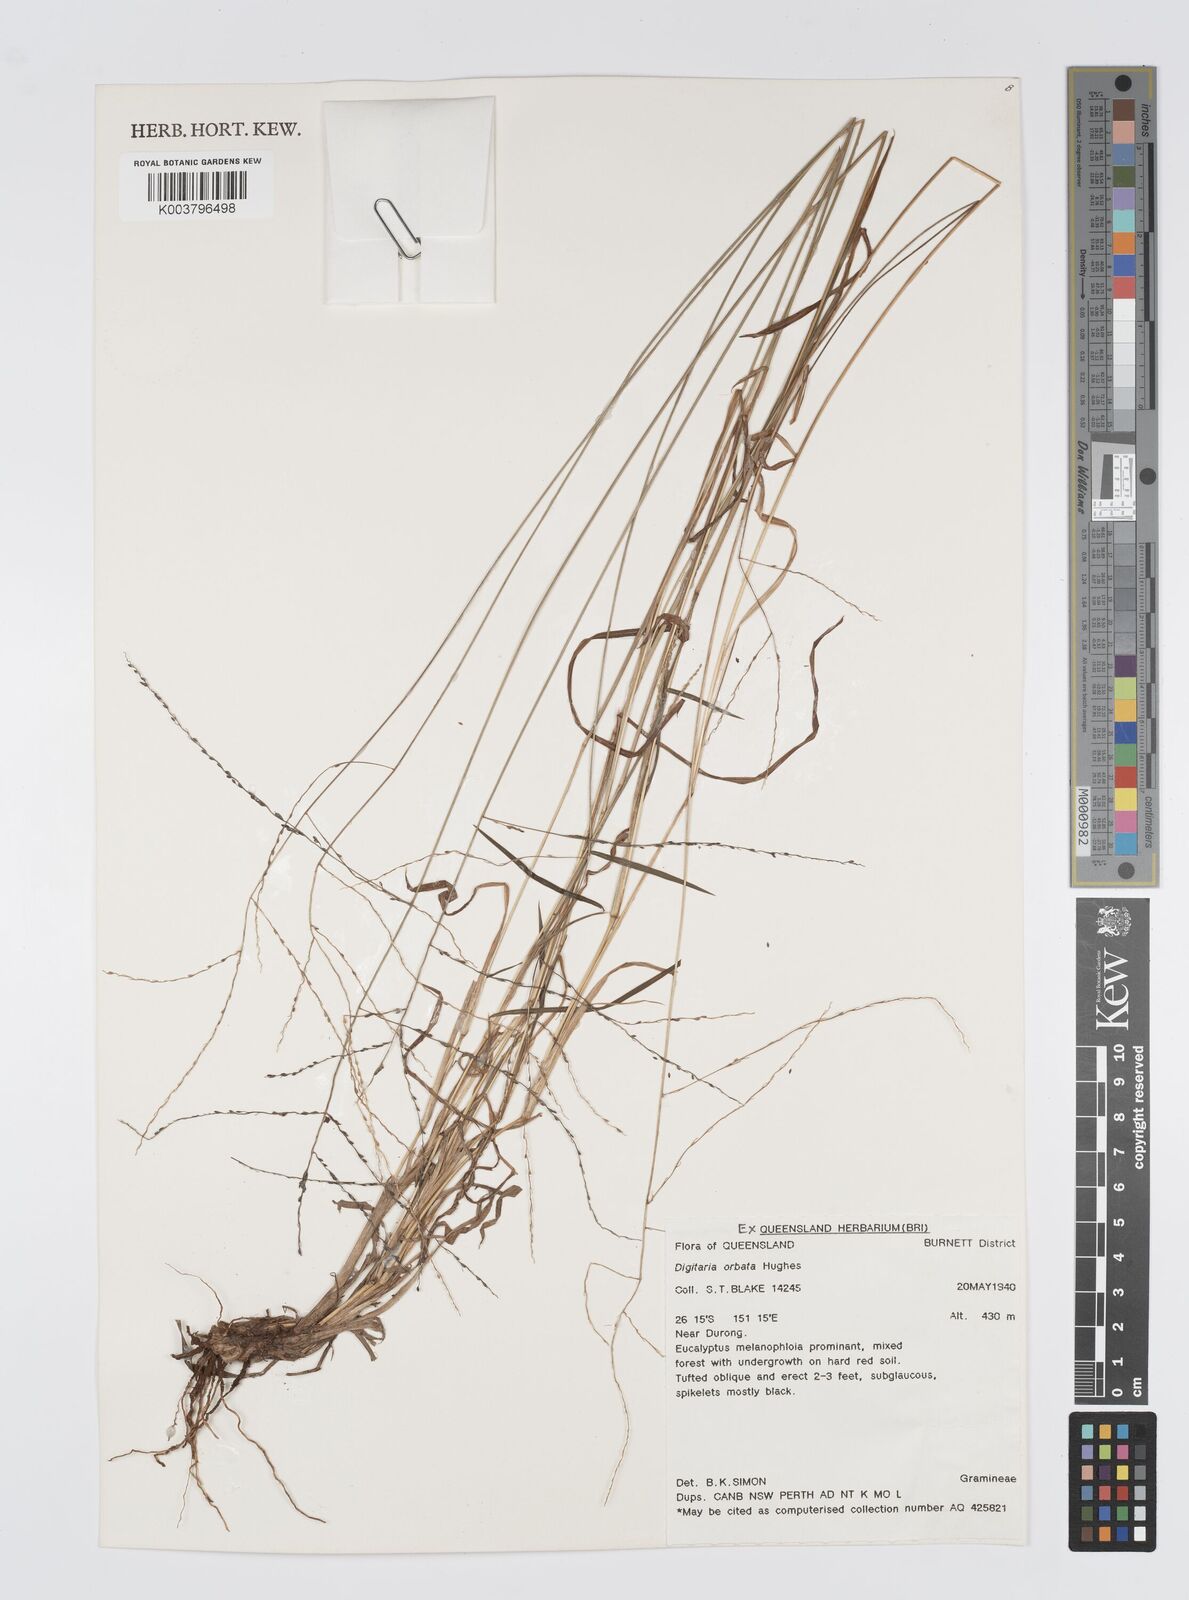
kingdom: Plantae
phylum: Tracheophyta
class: Liliopsida
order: Poales
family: Poaceae
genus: Digitaria
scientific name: Digitaria orbata
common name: Crabgrass
